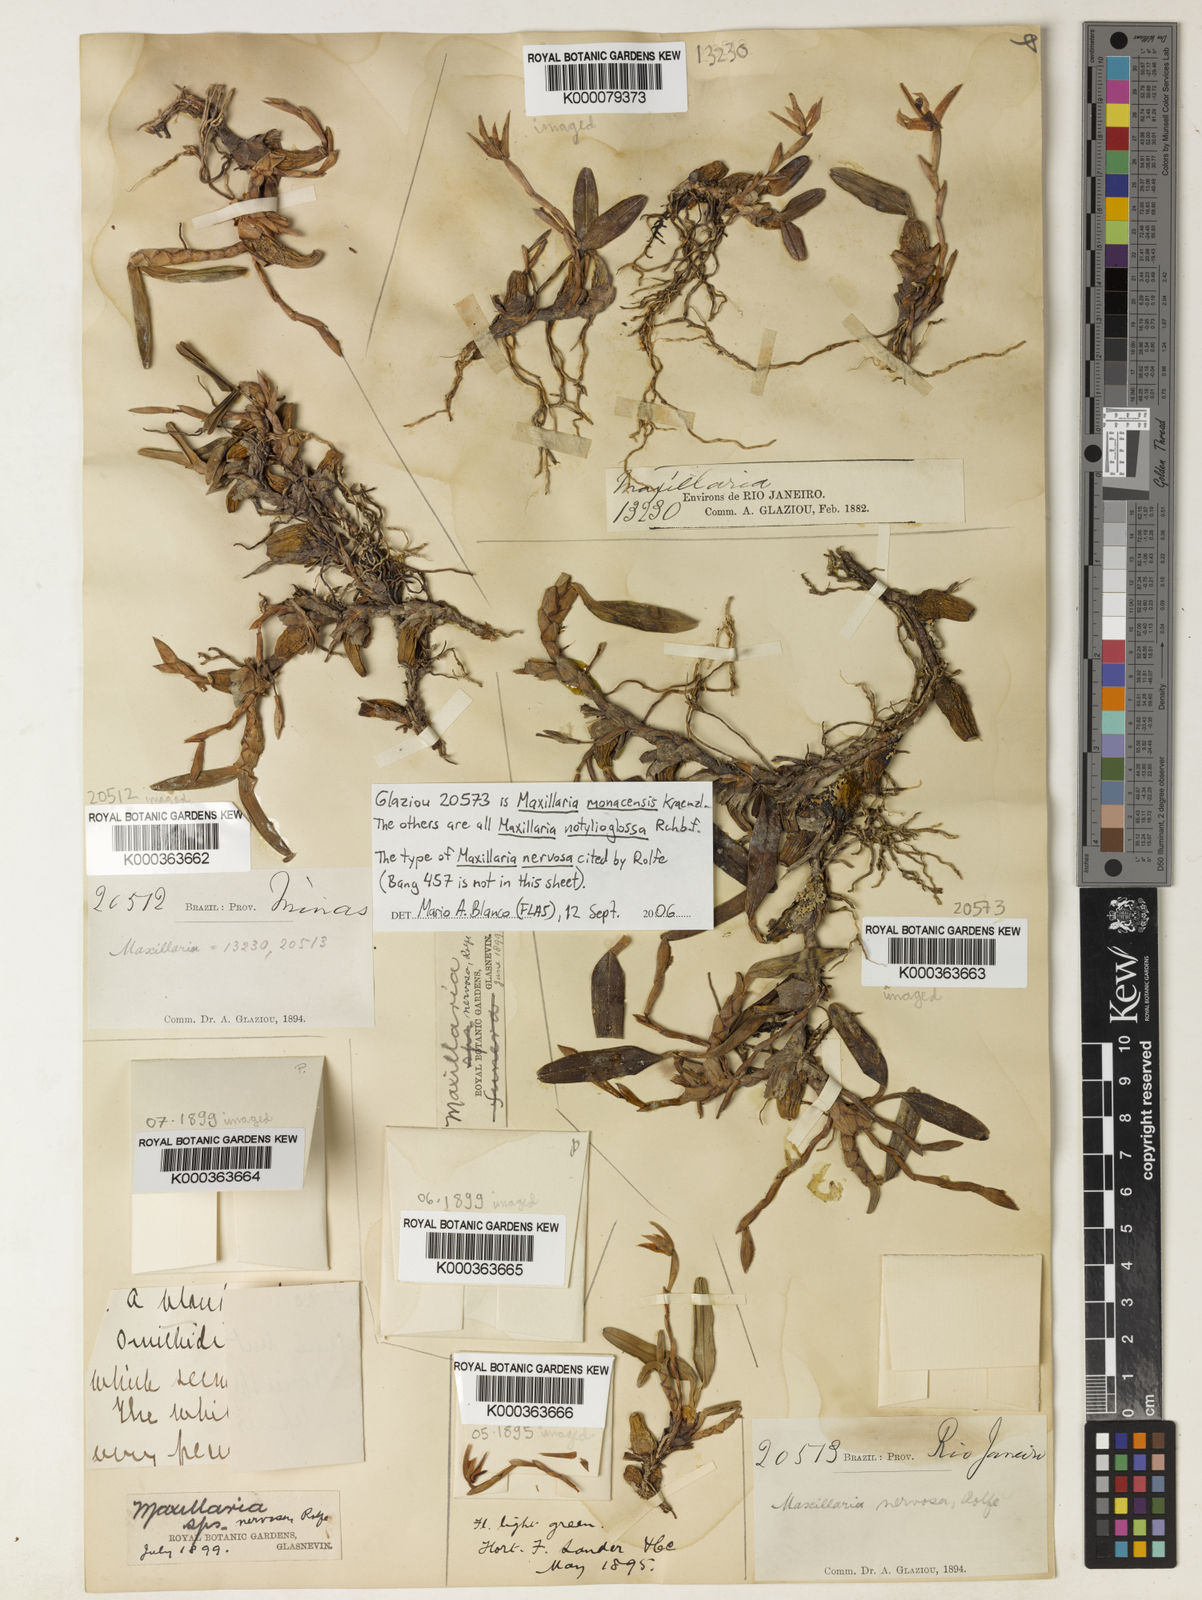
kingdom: Plantae
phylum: Tracheophyta
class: Liliopsida
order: Asparagales
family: Orchidaceae
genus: Maxillaria
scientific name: Maxillaria notylioglossa
